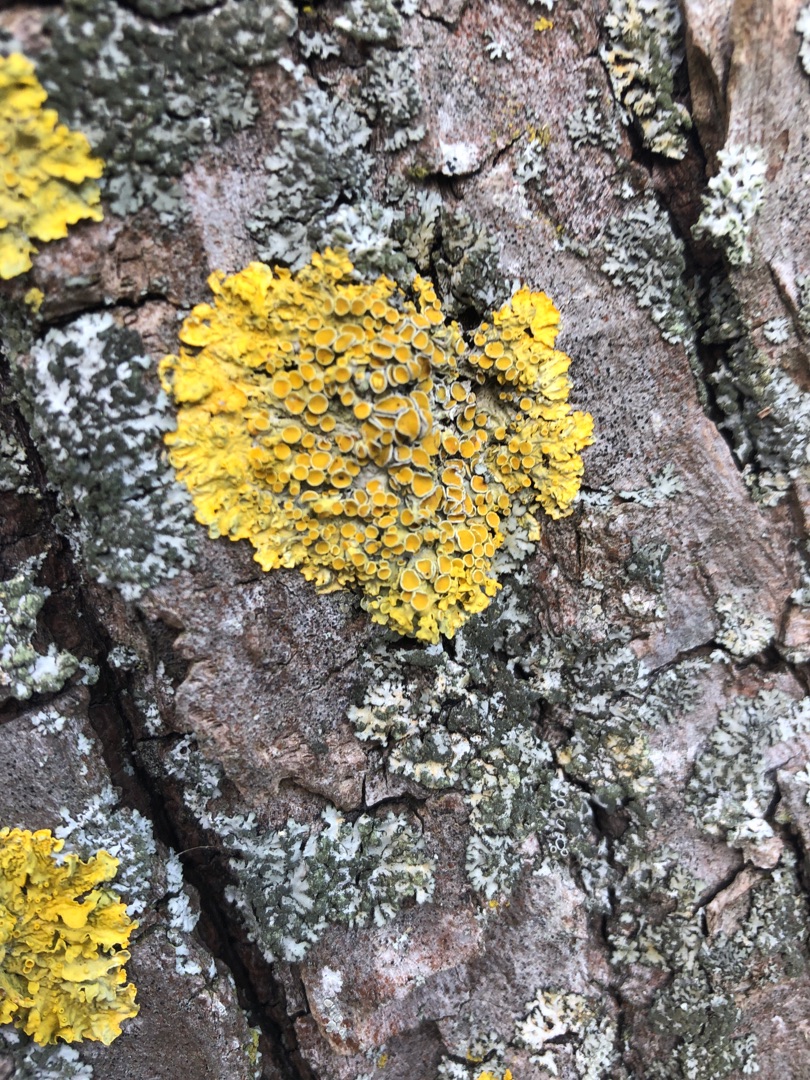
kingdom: Fungi
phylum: Ascomycota
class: Lecanoromycetes
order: Teloschistales
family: Teloschistaceae
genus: Xanthoria
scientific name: Xanthoria parietina
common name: Almindelig væggelav
